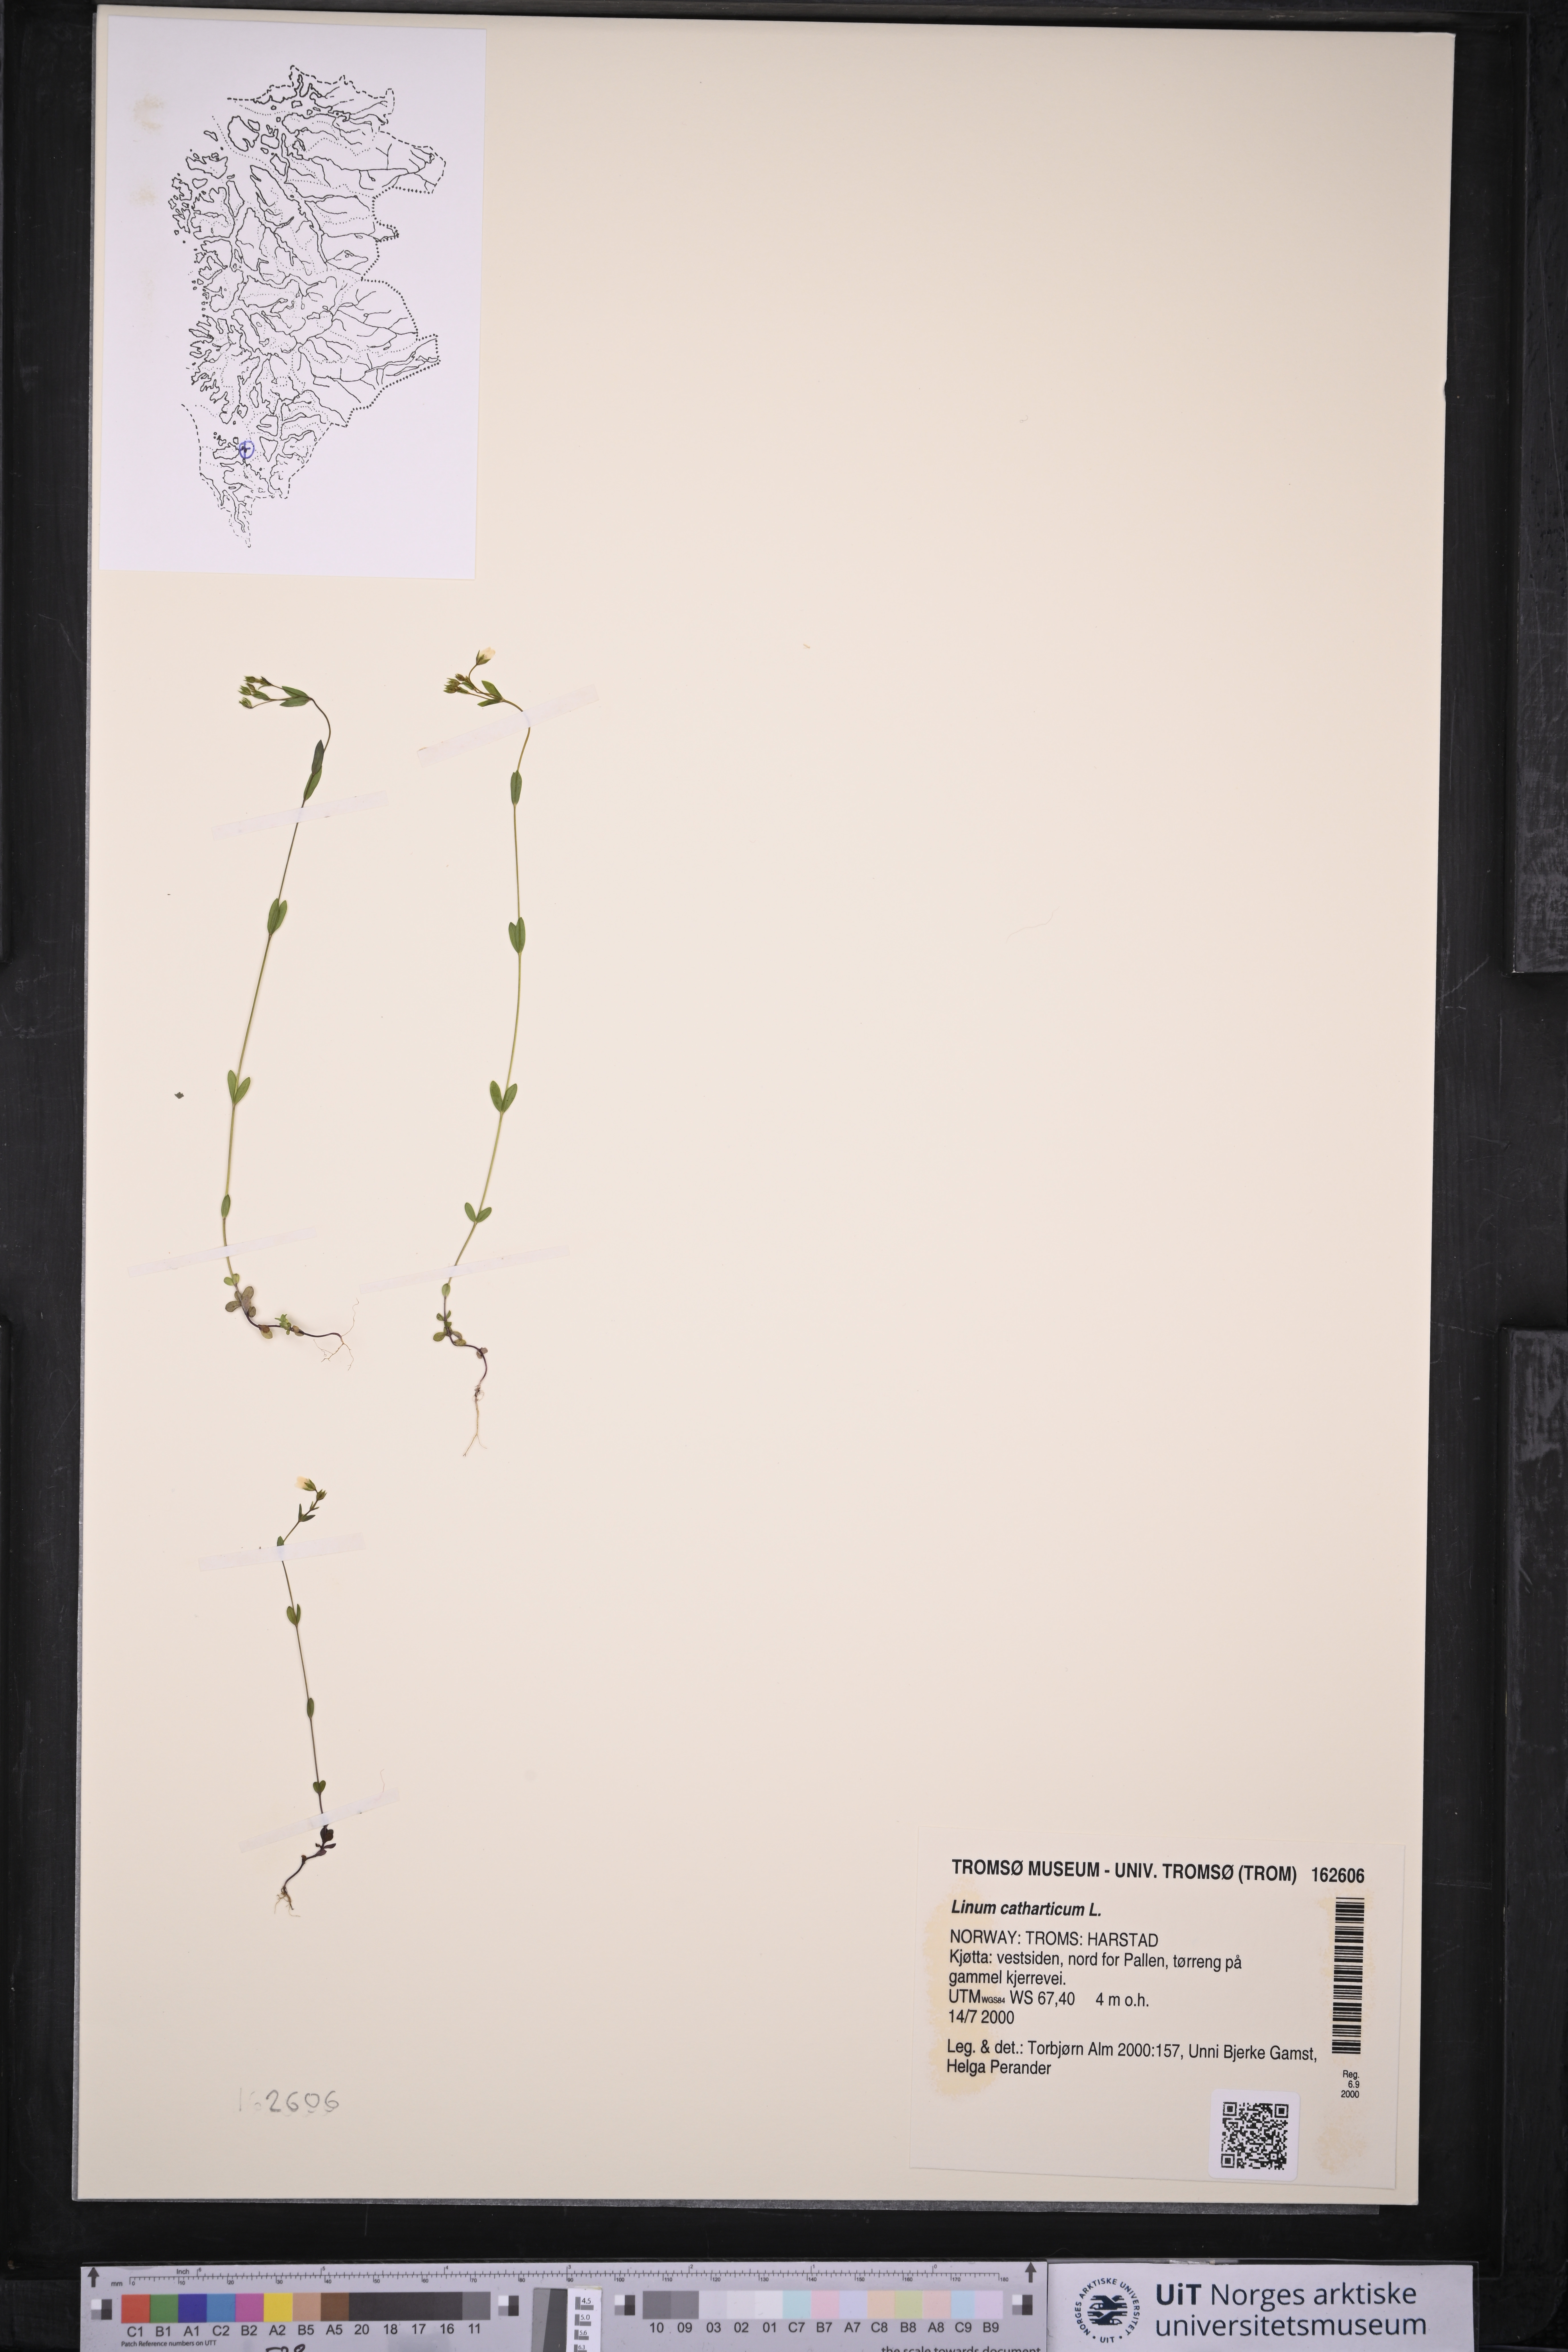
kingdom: Plantae
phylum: Tracheophyta
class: Magnoliopsida
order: Malpighiales
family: Linaceae
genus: Linum
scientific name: Linum catharticum
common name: Fairy flax
